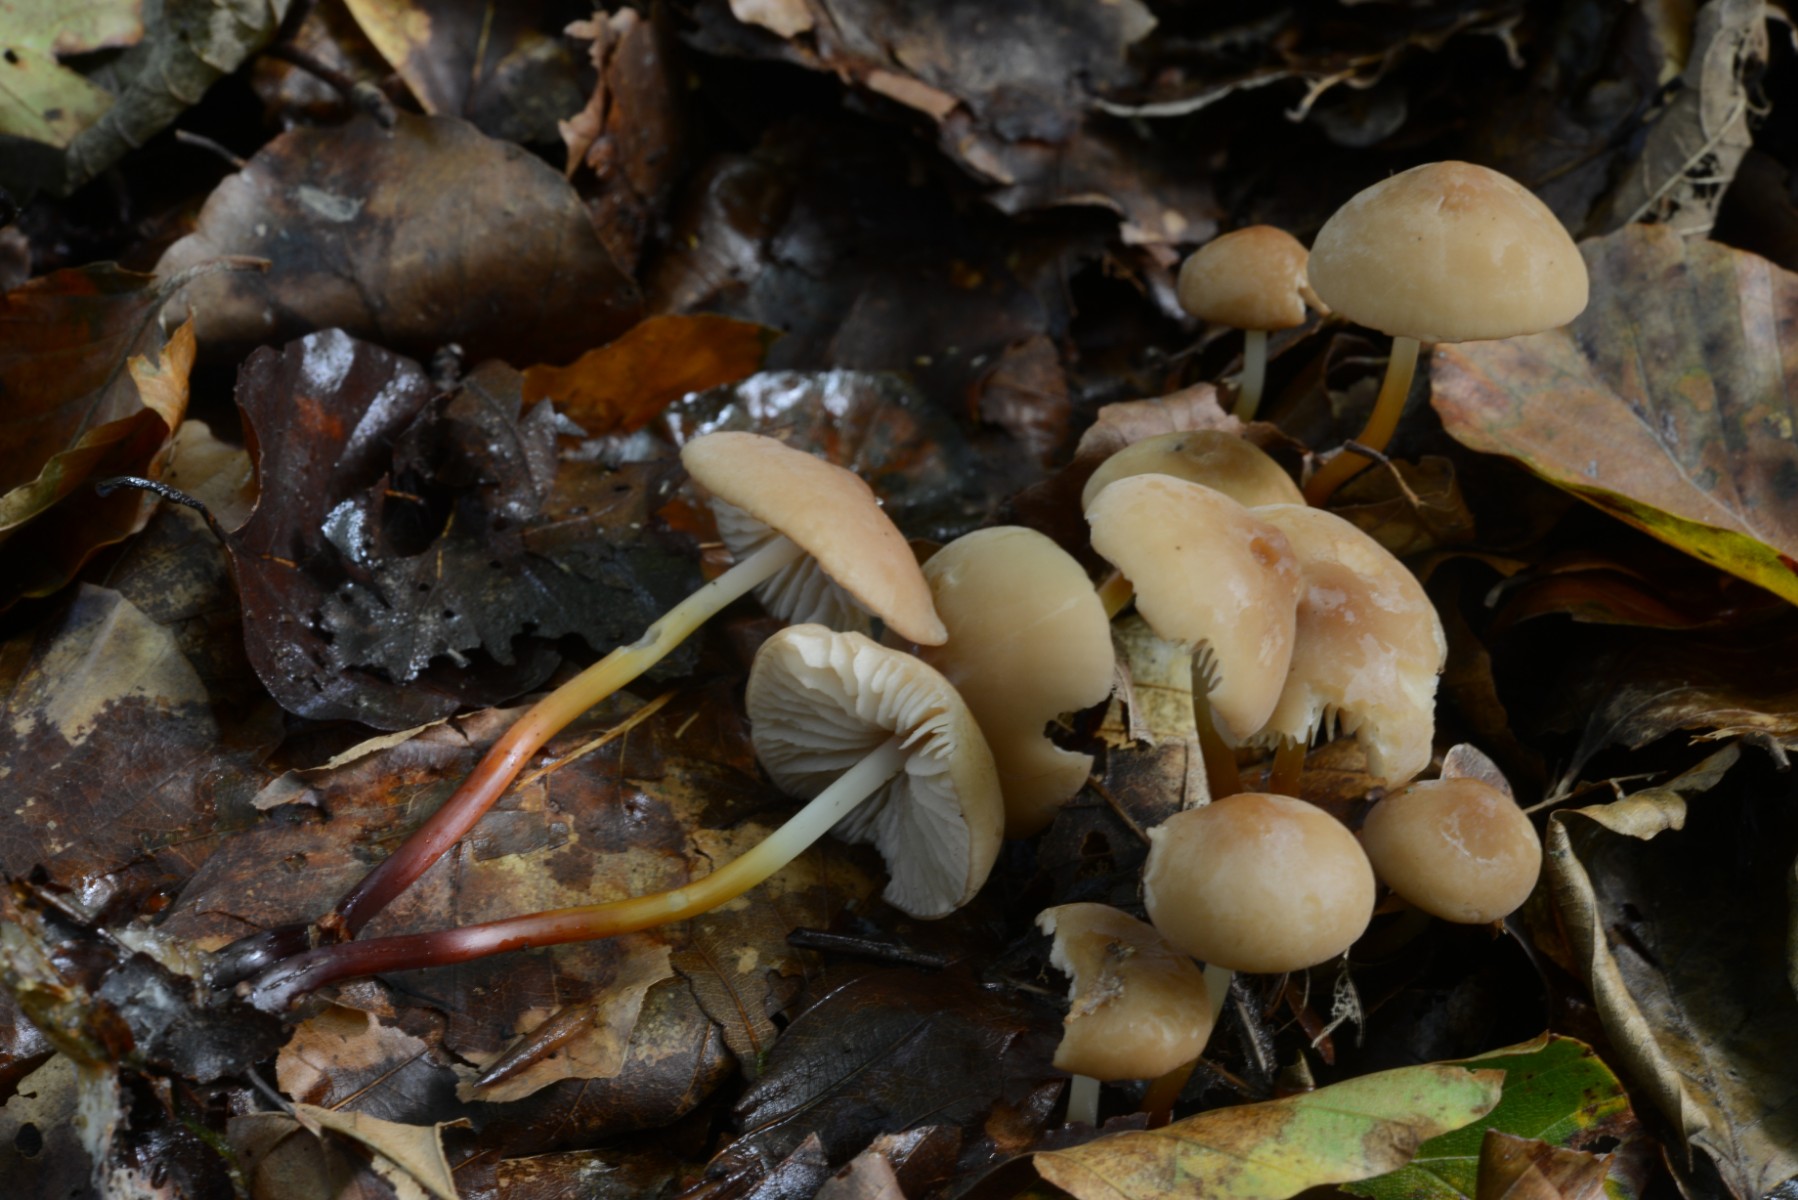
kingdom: Fungi
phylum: Basidiomycota
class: Agaricomycetes
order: Agaricales
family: Marasmiaceae
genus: Marasmius
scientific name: Marasmius wynneae
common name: hvælvet bruskhat
